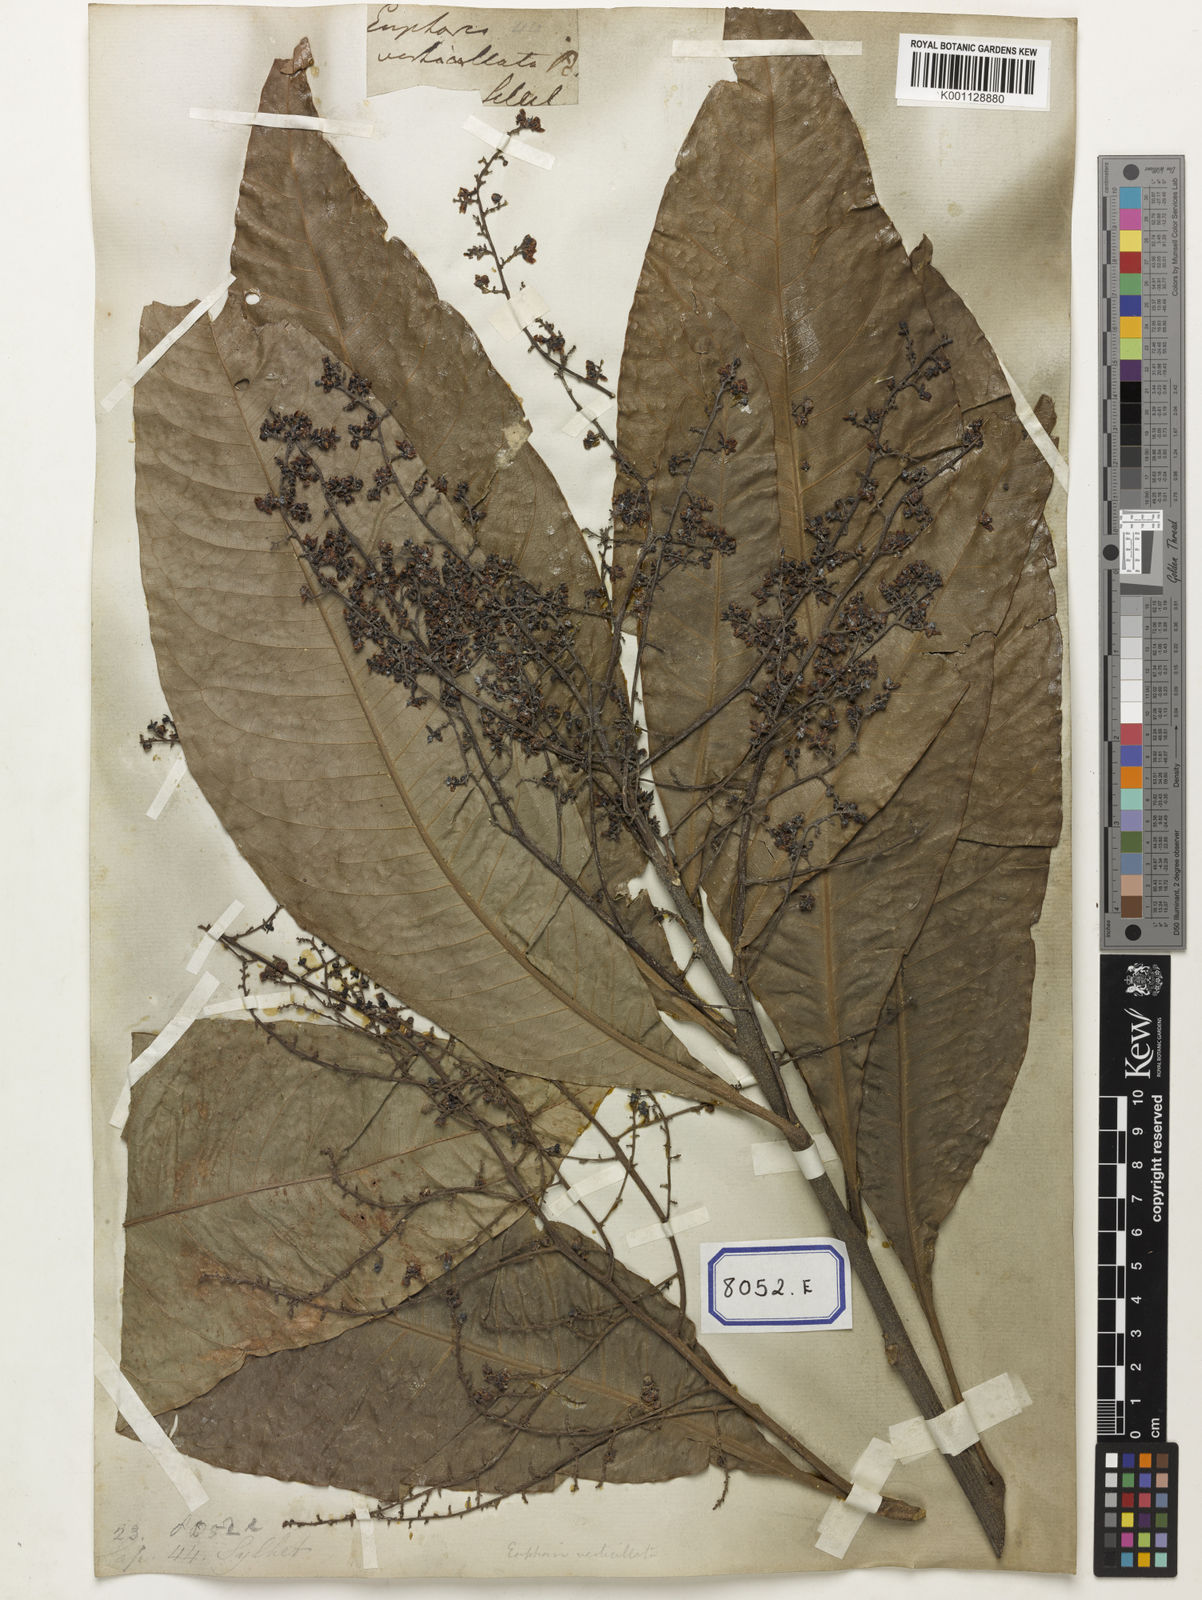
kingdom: Plantae
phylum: Tracheophyta
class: Magnoliopsida
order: Sapindales
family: Sapindaceae
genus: Lepisanthes
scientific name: Lepisanthes senegalensis
